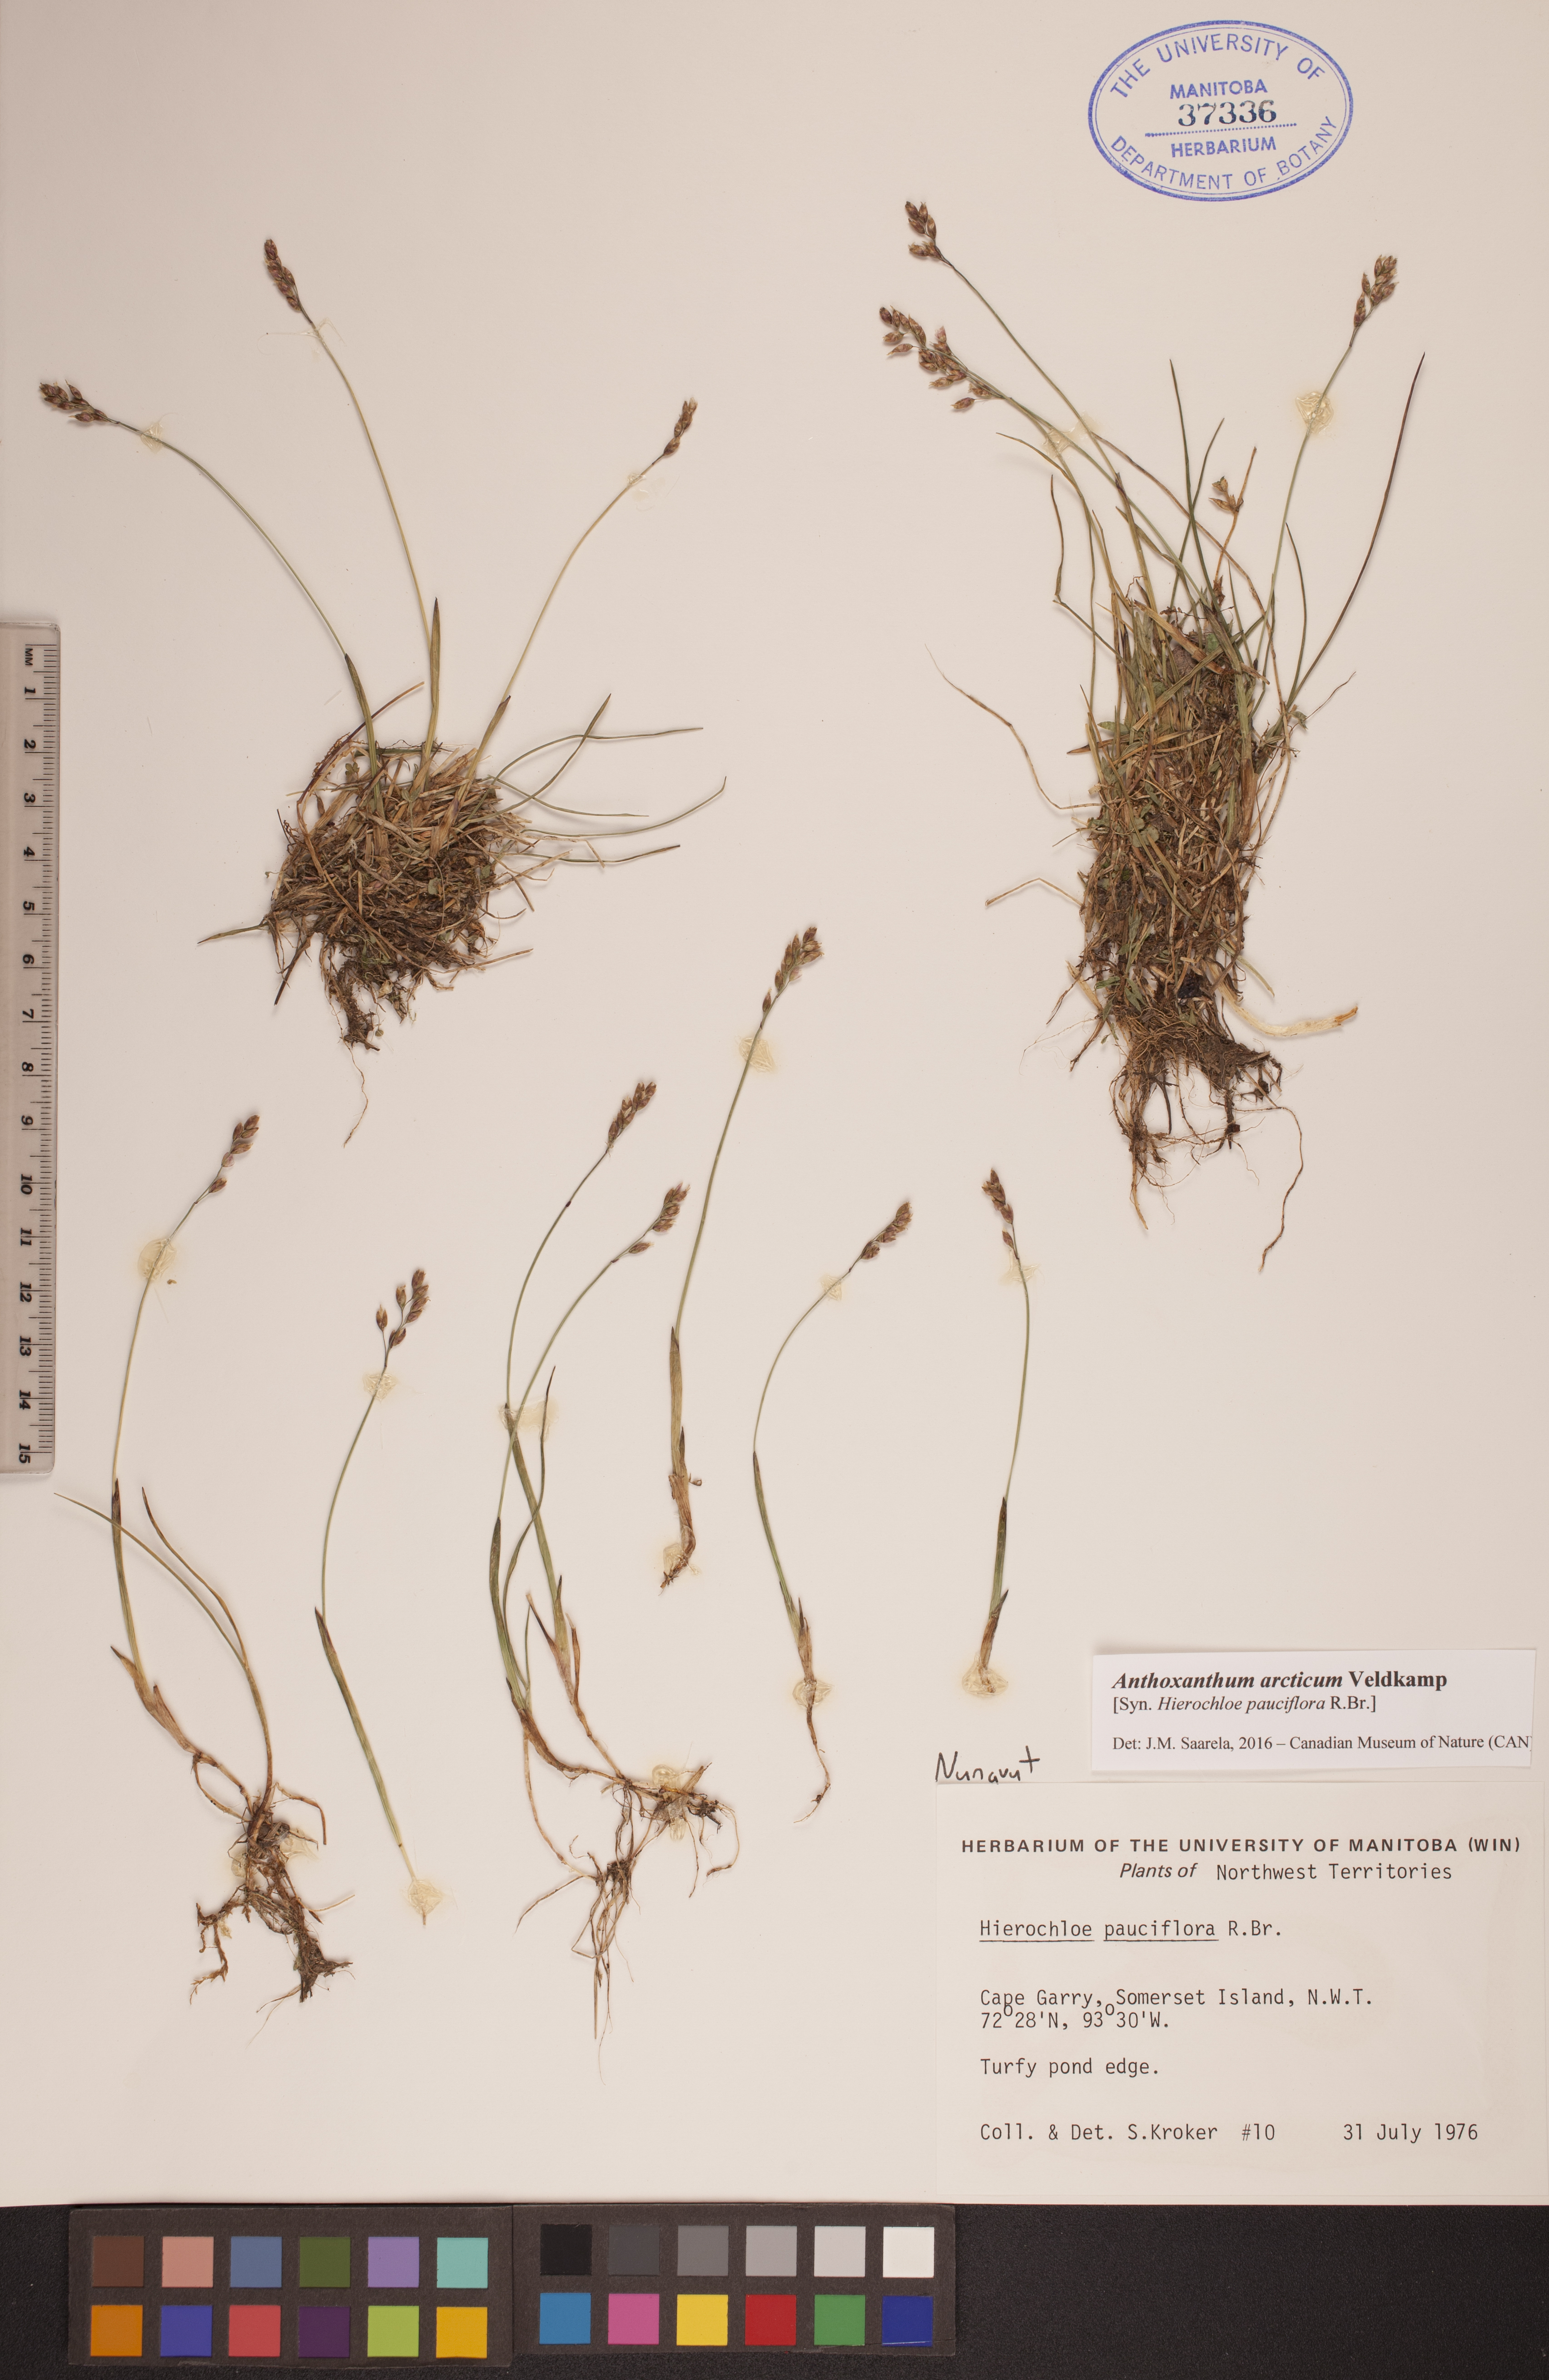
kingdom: Plantae
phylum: Tracheophyta
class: Liliopsida
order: Poales
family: Poaceae
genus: Anthoxanthum
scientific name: Anthoxanthum arcticum
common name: Arctic sweetgrass
